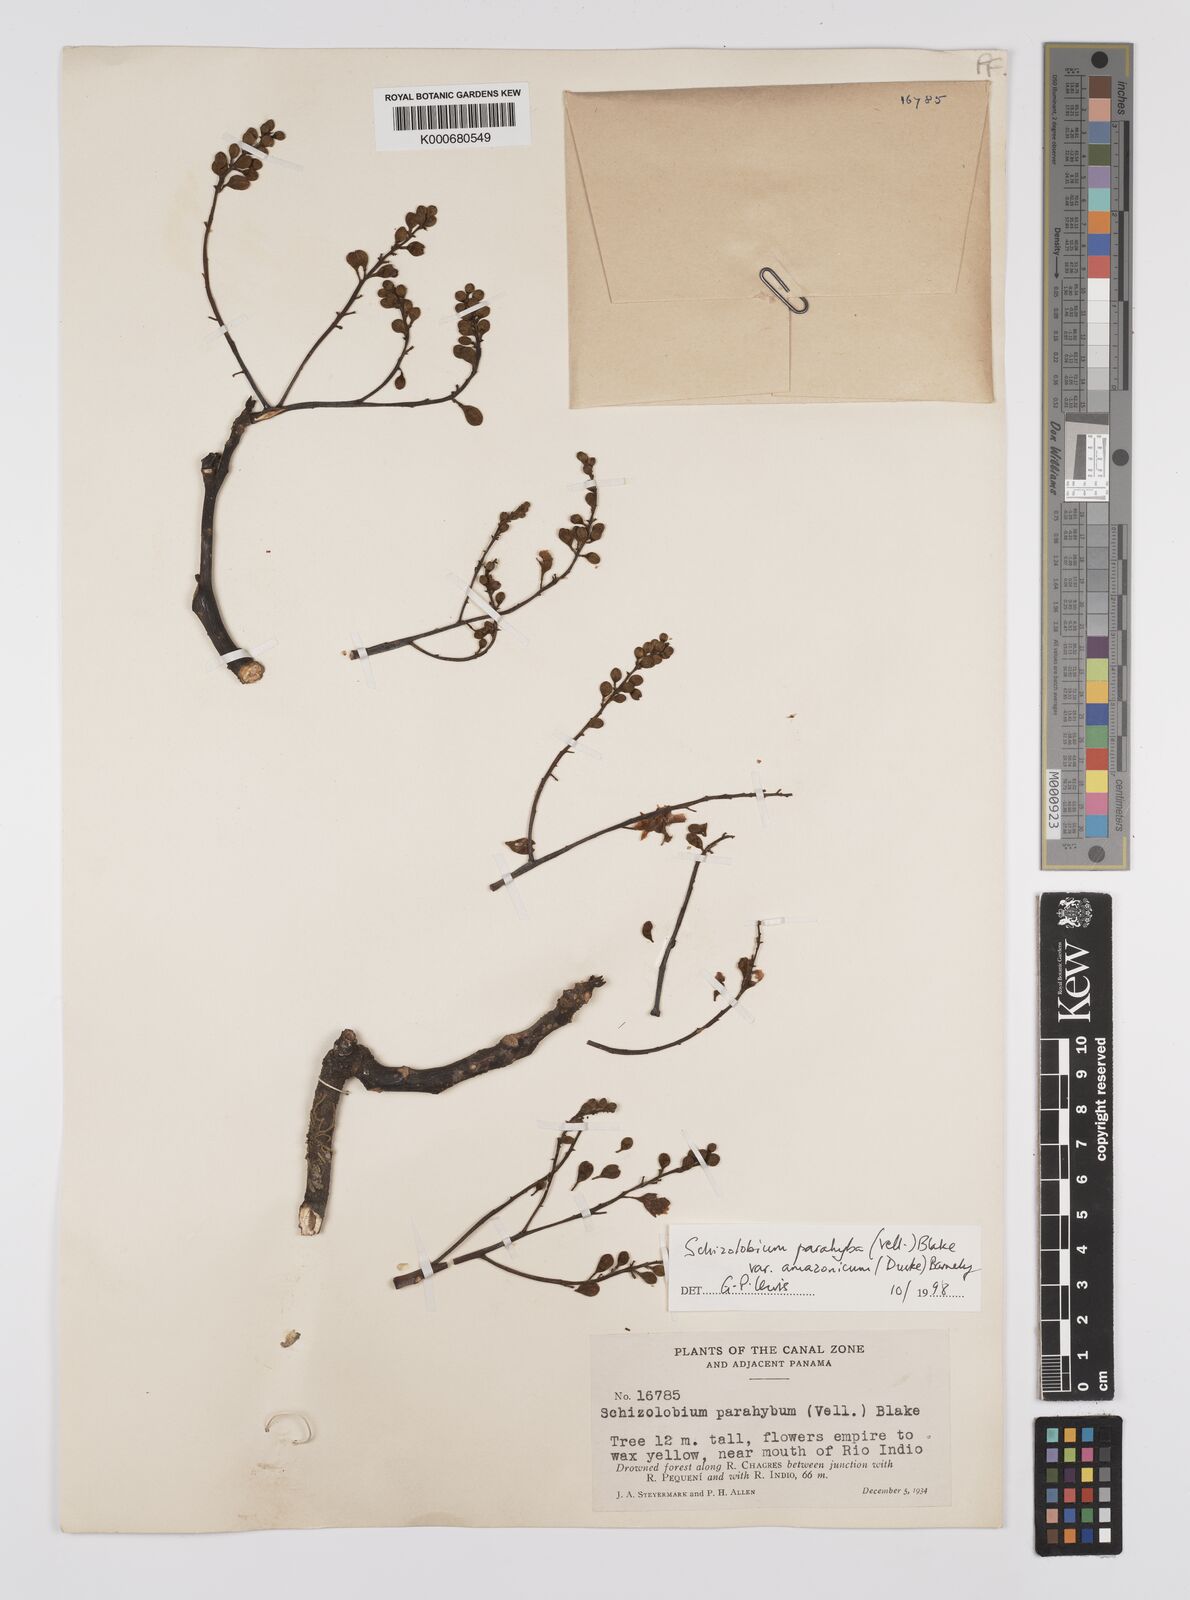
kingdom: Plantae
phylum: Tracheophyta
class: Magnoliopsida
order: Fabales
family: Fabaceae
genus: Schizolobium
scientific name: Schizolobium parahyba
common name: Brazilian firetree
